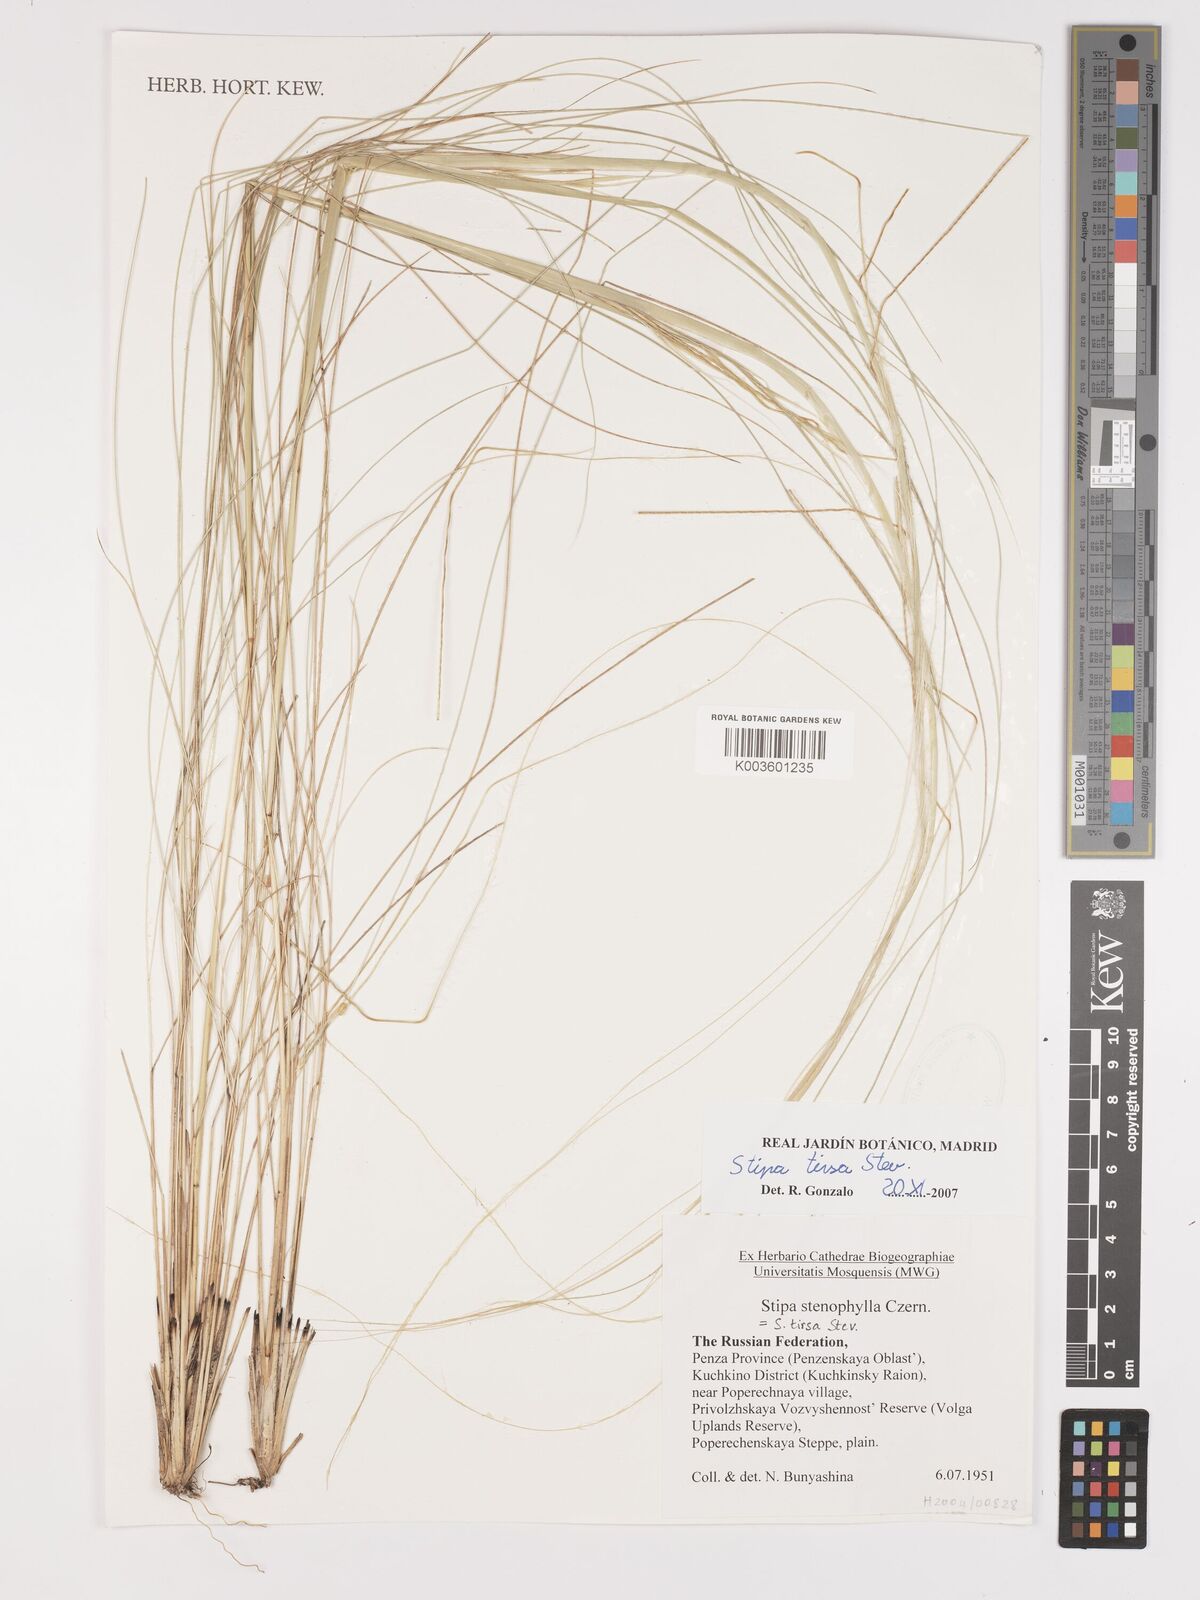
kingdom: Plantae
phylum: Tracheophyta
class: Liliopsida
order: Poales
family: Poaceae
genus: Stipa
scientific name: Stipa tirsa
